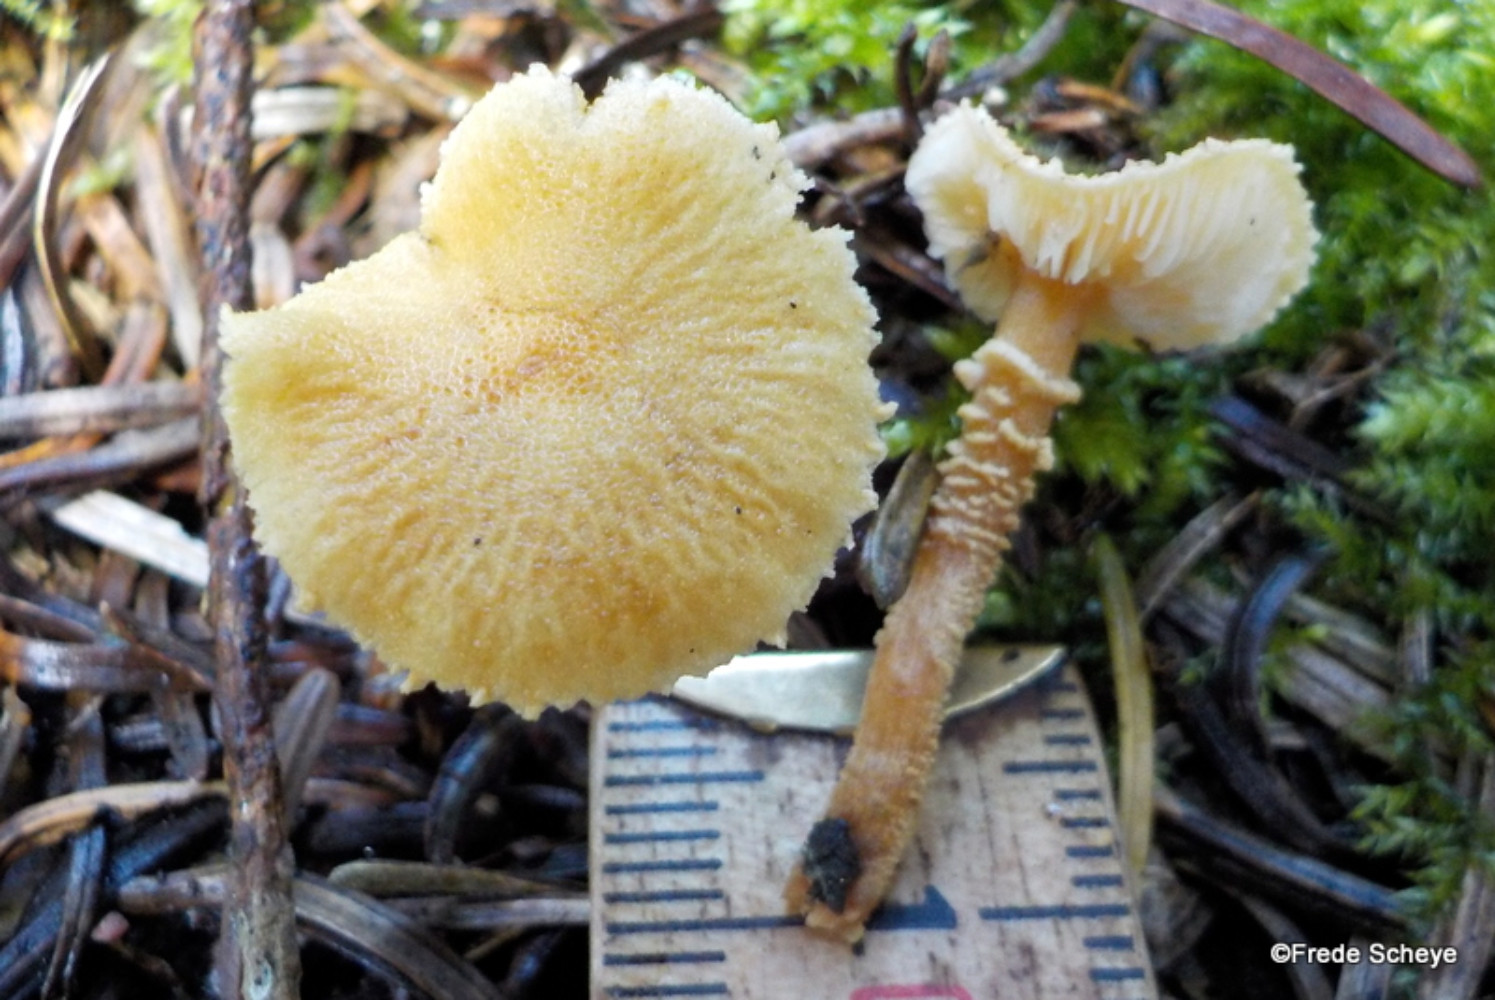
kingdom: Fungi
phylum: Basidiomycota
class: Agaricomycetes
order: Agaricales
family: Tricholomataceae
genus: Cystoderma
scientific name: Cystoderma amianthinum
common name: okkergul grynhat
